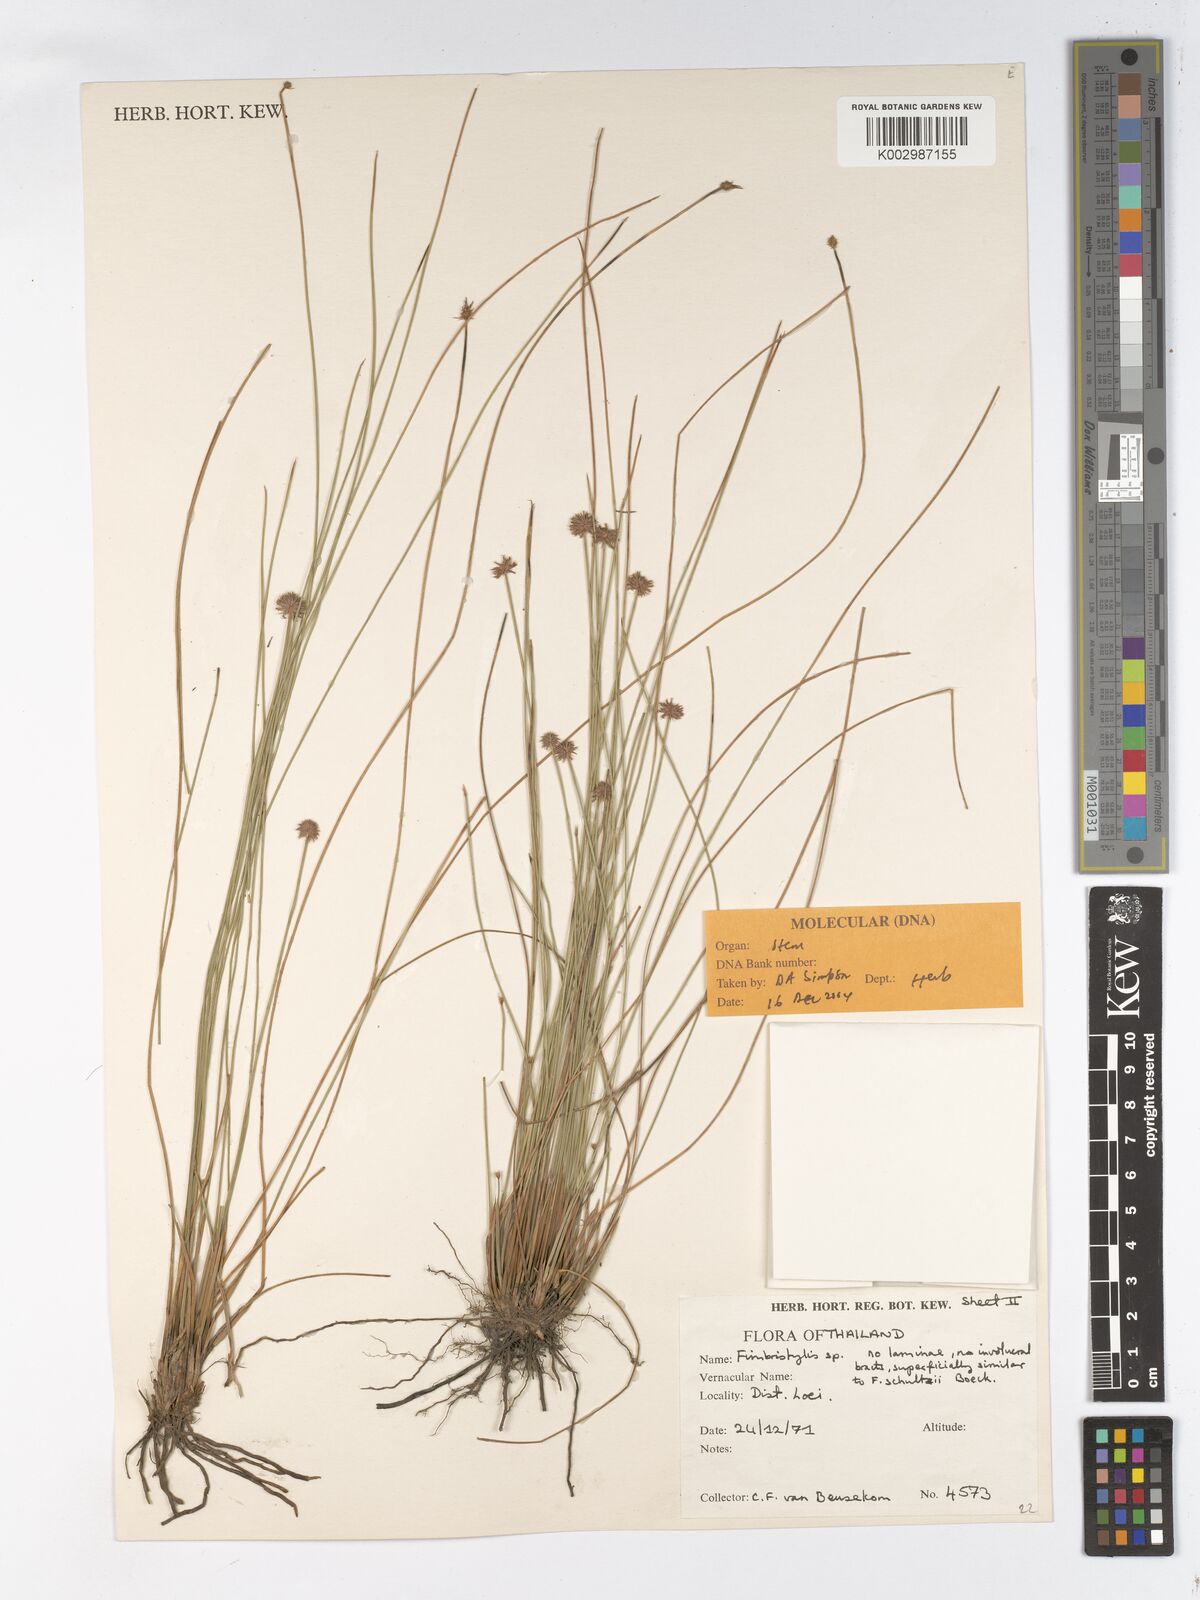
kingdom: Plantae
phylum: Tracheophyta
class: Liliopsida
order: Poales
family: Cyperaceae
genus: Actinoschoenus
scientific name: Actinoschoenus aphyllus
